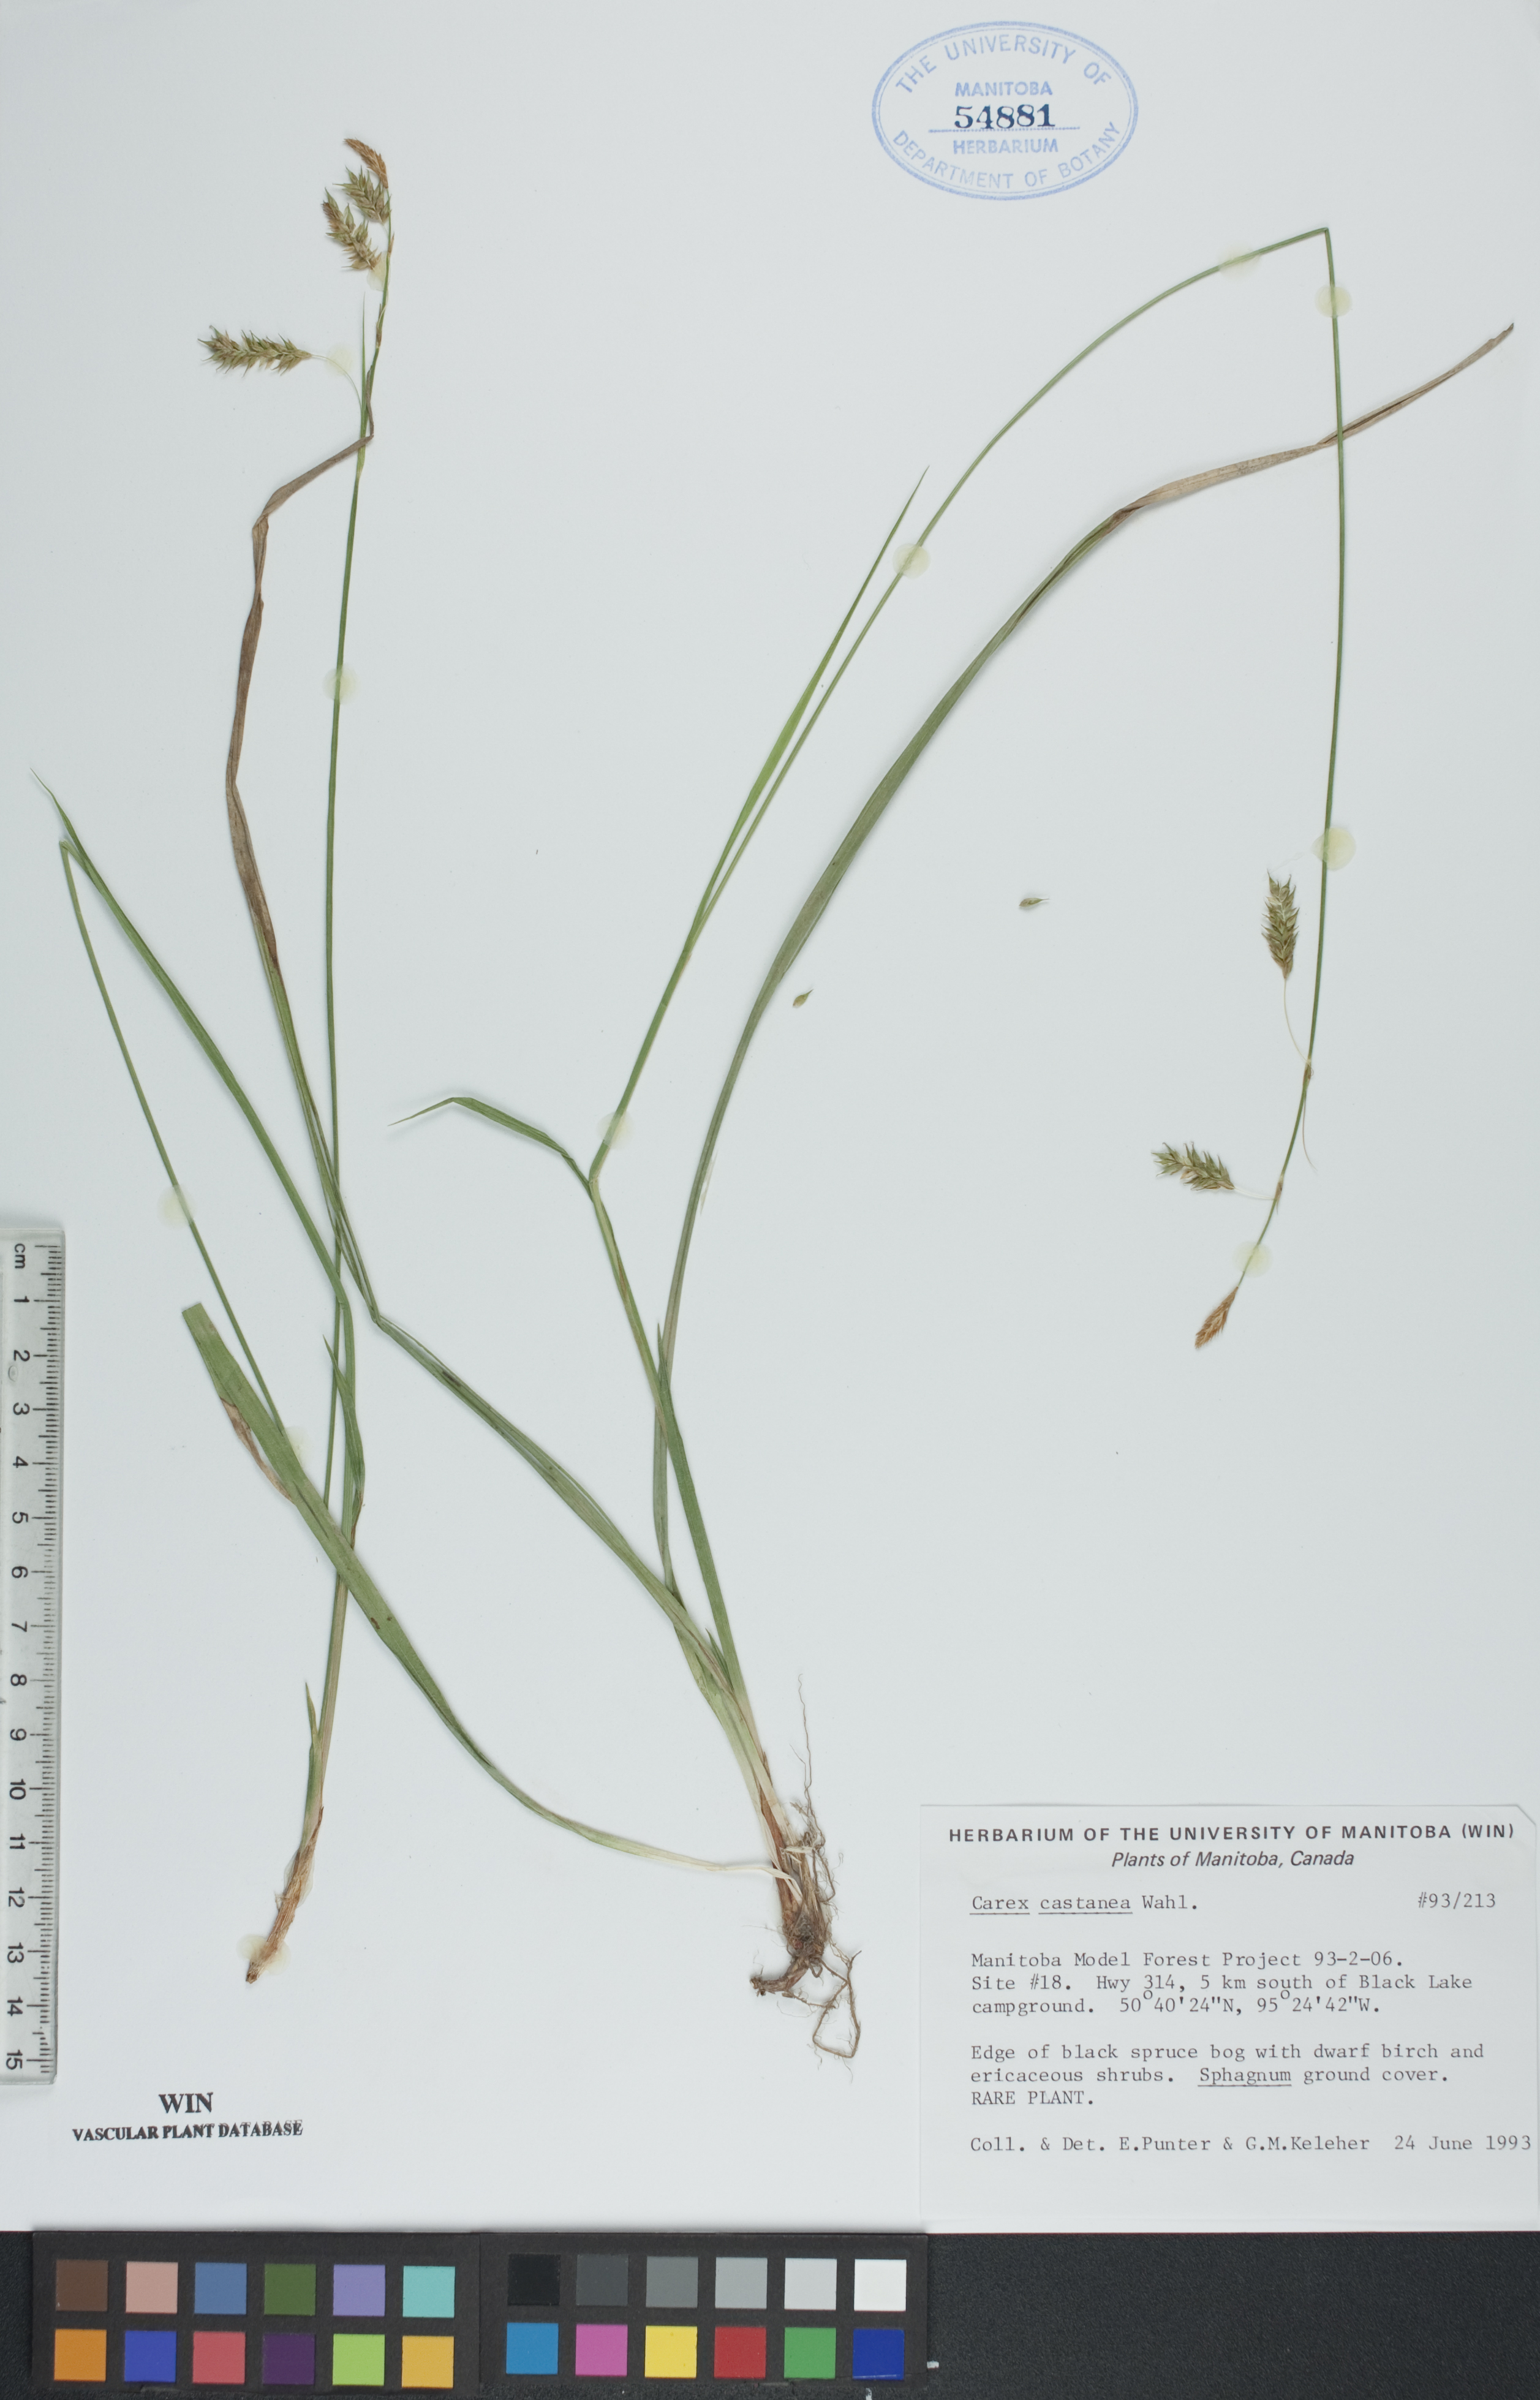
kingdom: Plantae
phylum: Tracheophyta
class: Liliopsida
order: Poales
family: Cyperaceae
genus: Carex
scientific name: Carex castanea
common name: Chestnut sedge
